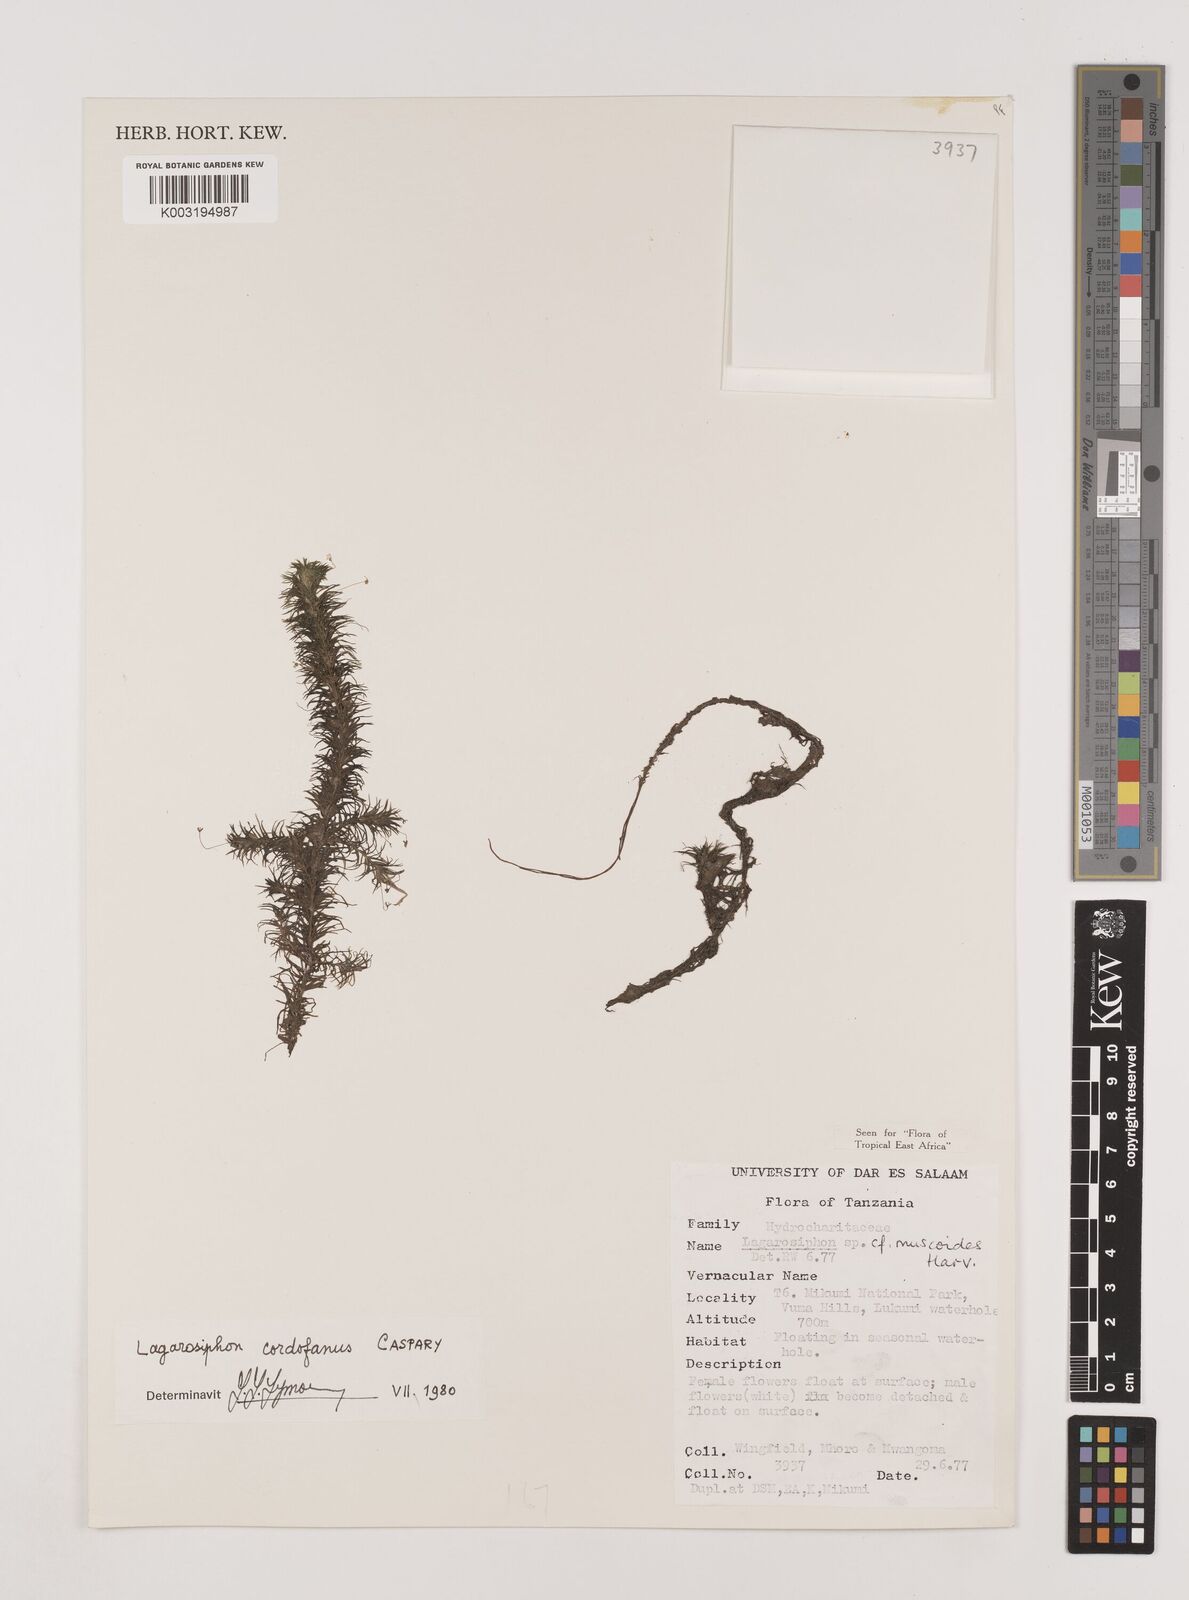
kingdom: Plantae
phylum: Tracheophyta
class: Liliopsida
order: Alismatales
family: Hydrocharitaceae
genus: Lagarosiphon
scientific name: Lagarosiphon cordofanus
